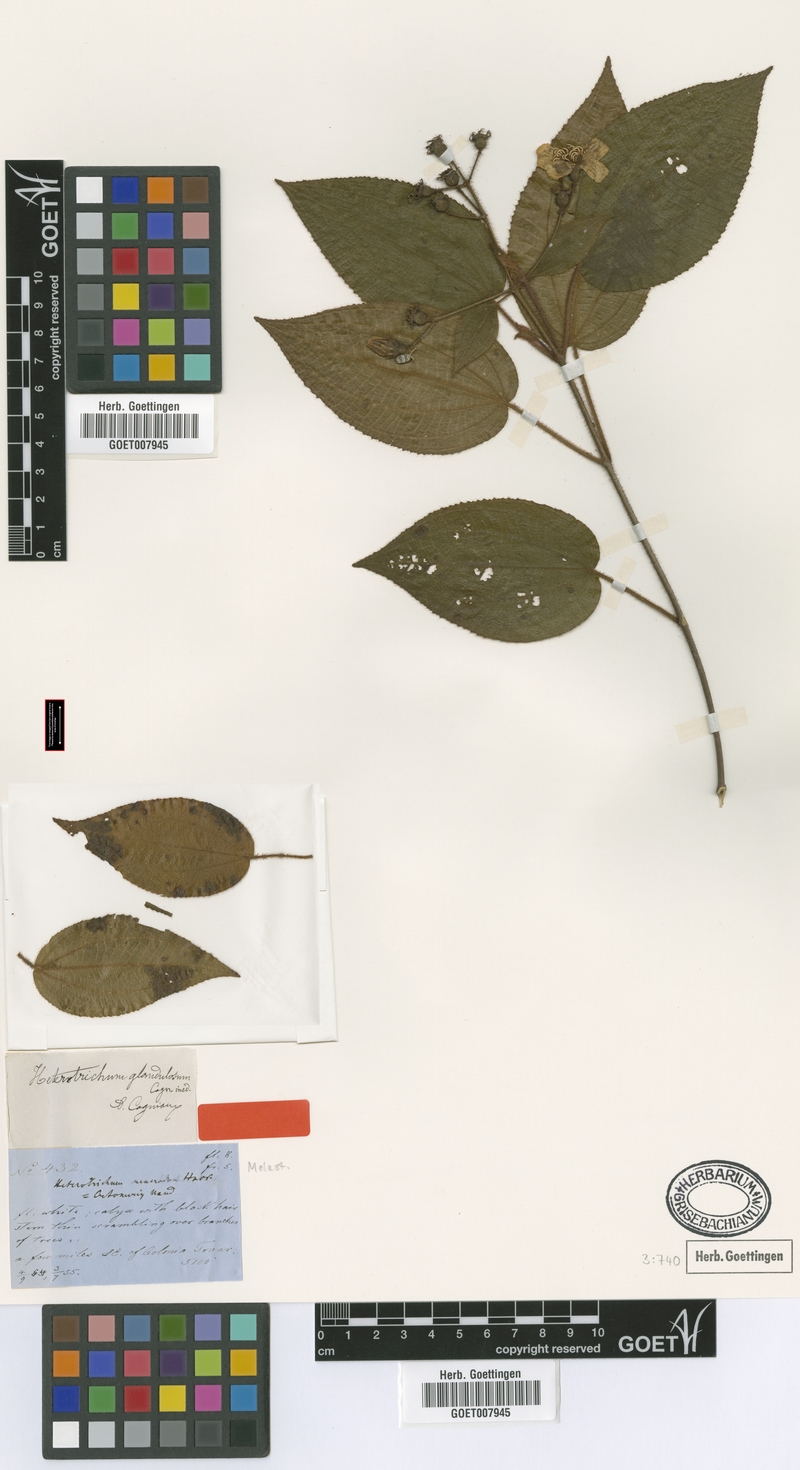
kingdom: Plantae
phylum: Tracheophyta
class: Magnoliopsida
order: Myrtales
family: Melastomataceae
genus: Miconia
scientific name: Miconia araguensis
